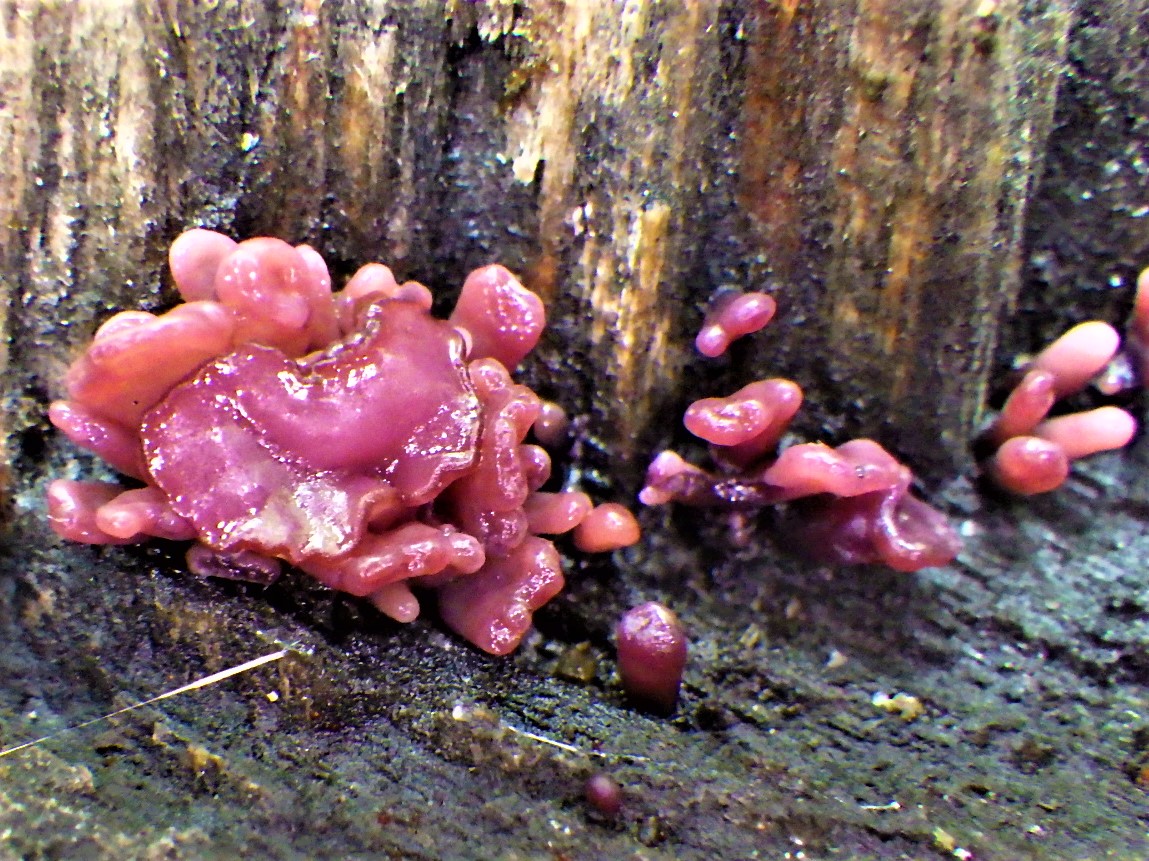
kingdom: Fungi
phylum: Ascomycota
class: Leotiomycetes
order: Helotiales
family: Gelatinodiscaceae
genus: Ascocoryne
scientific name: Ascocoryne sarcoides
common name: rødlilla sejskive
